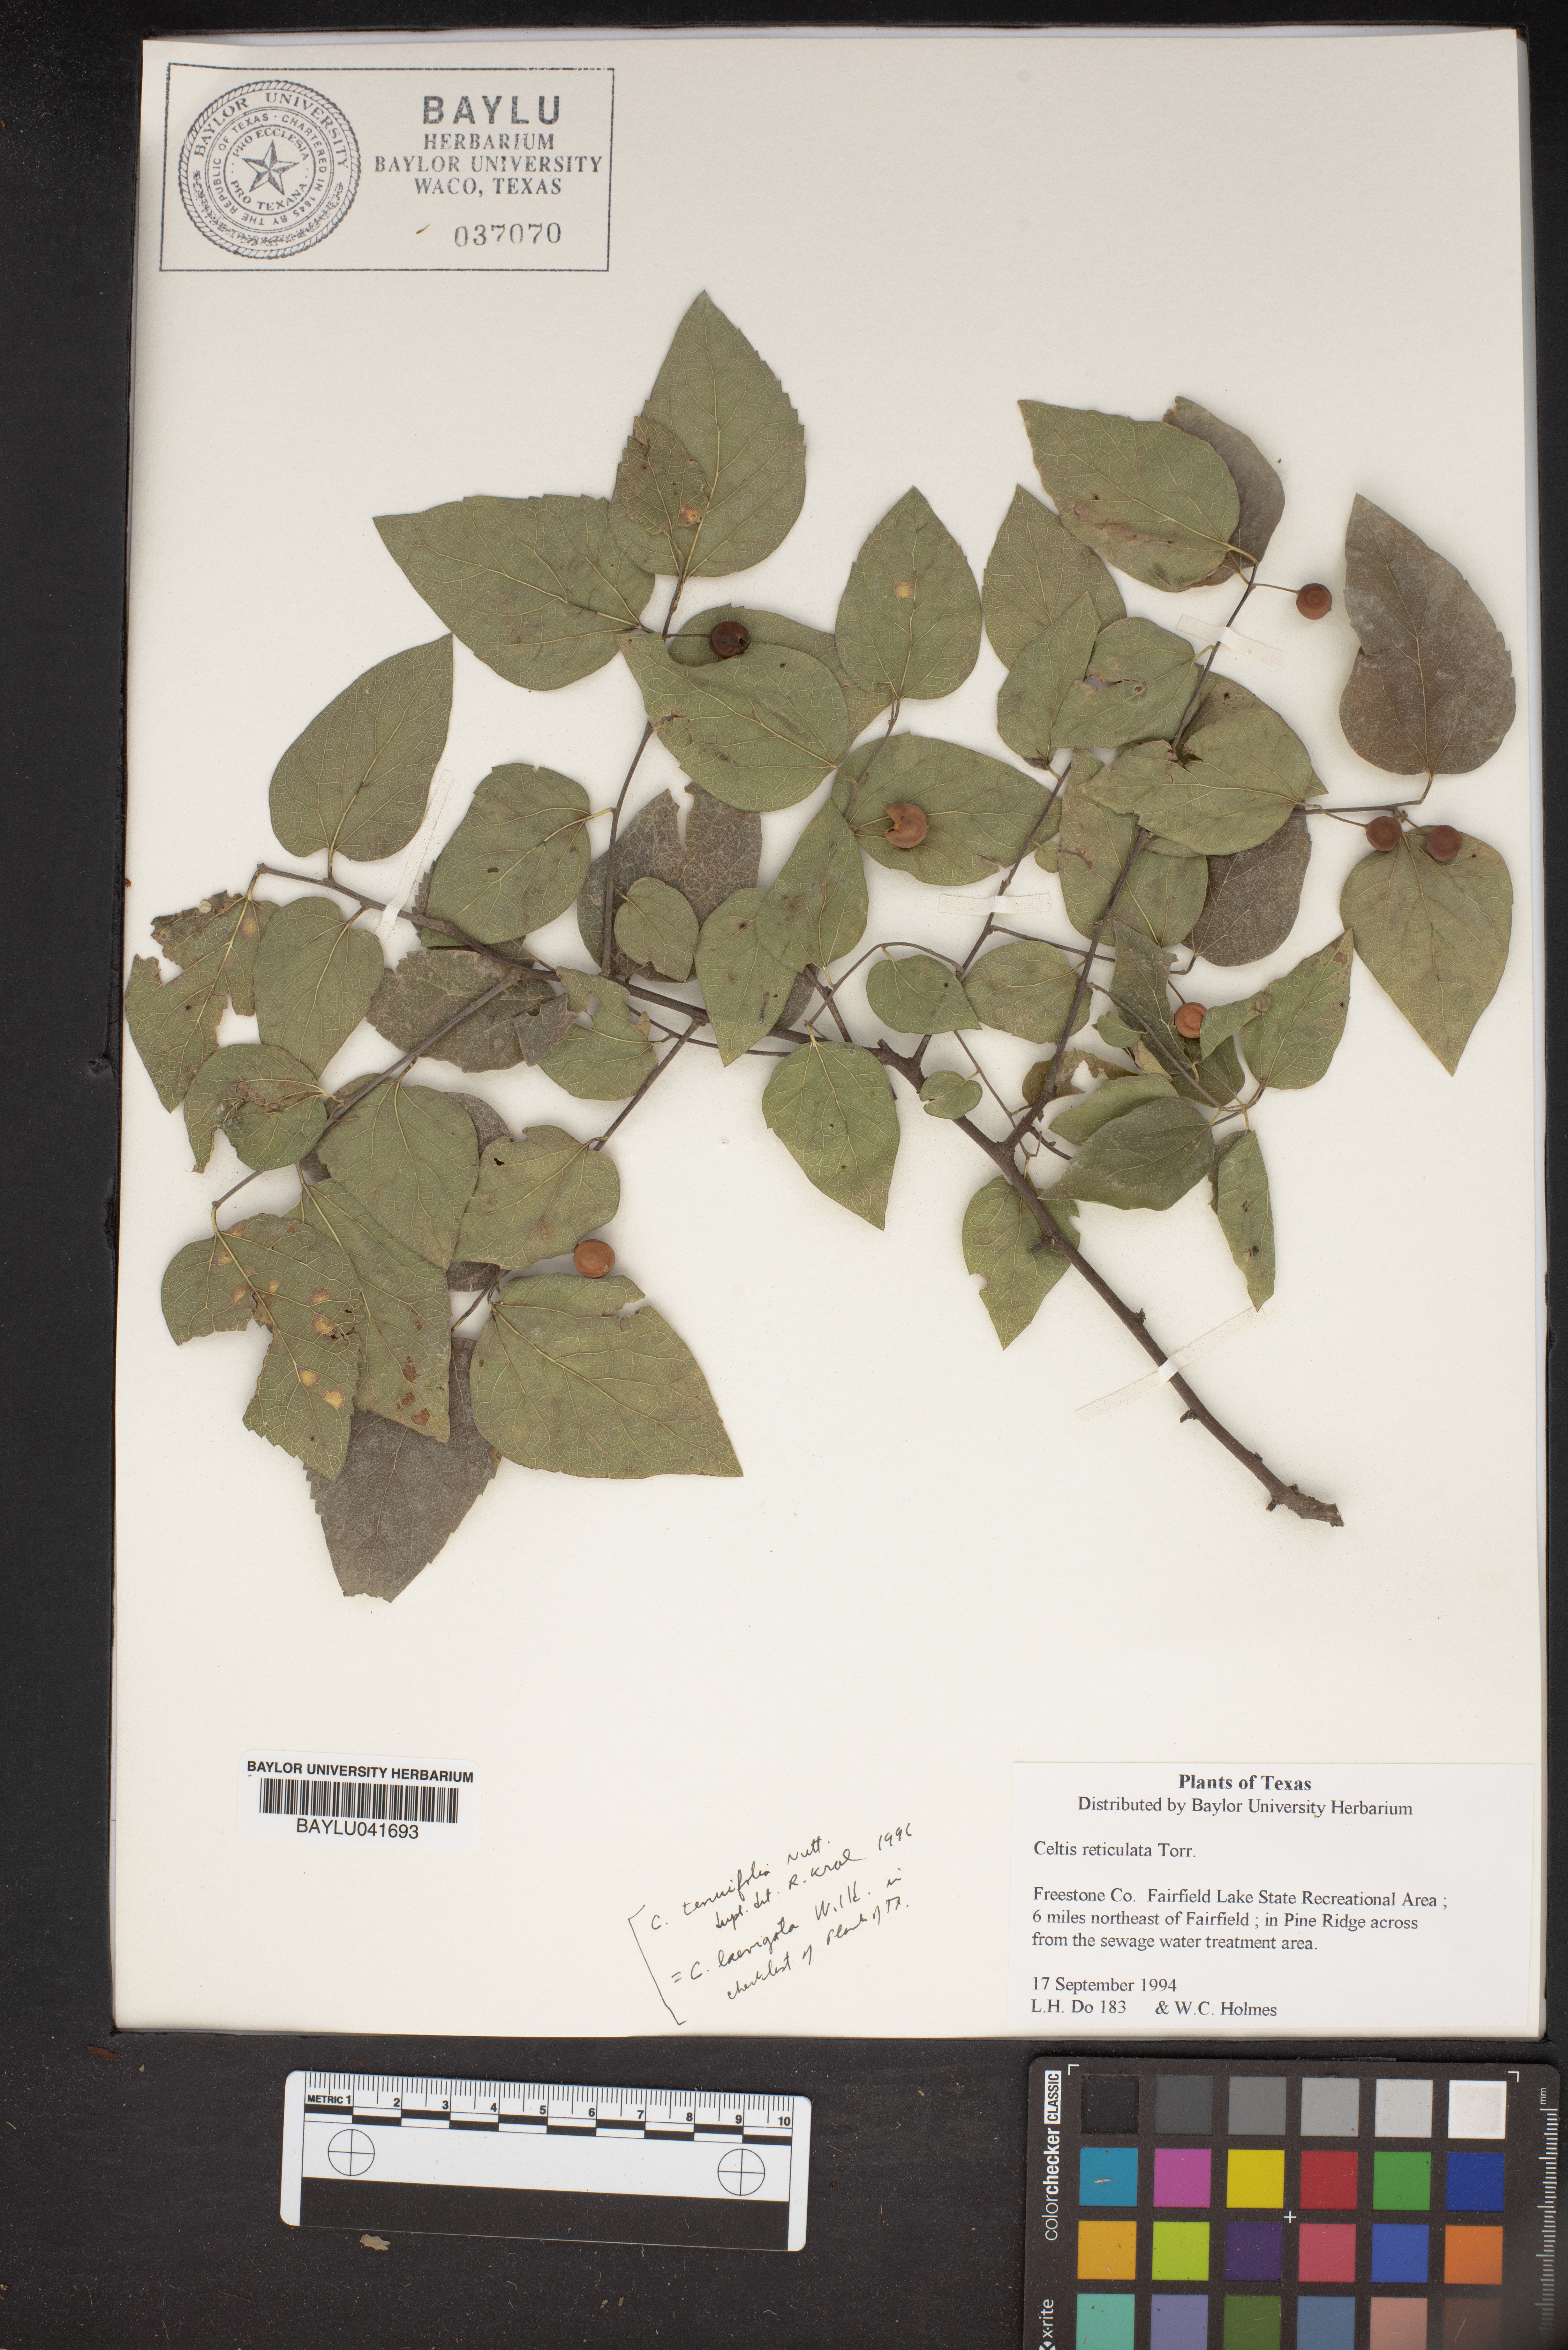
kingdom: Plantae
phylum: Tracheophyta
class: Magnoliopsida
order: Rosales
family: Cannabaceae
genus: Celtis
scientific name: Celtis reticulata
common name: Netleaf hackberry
